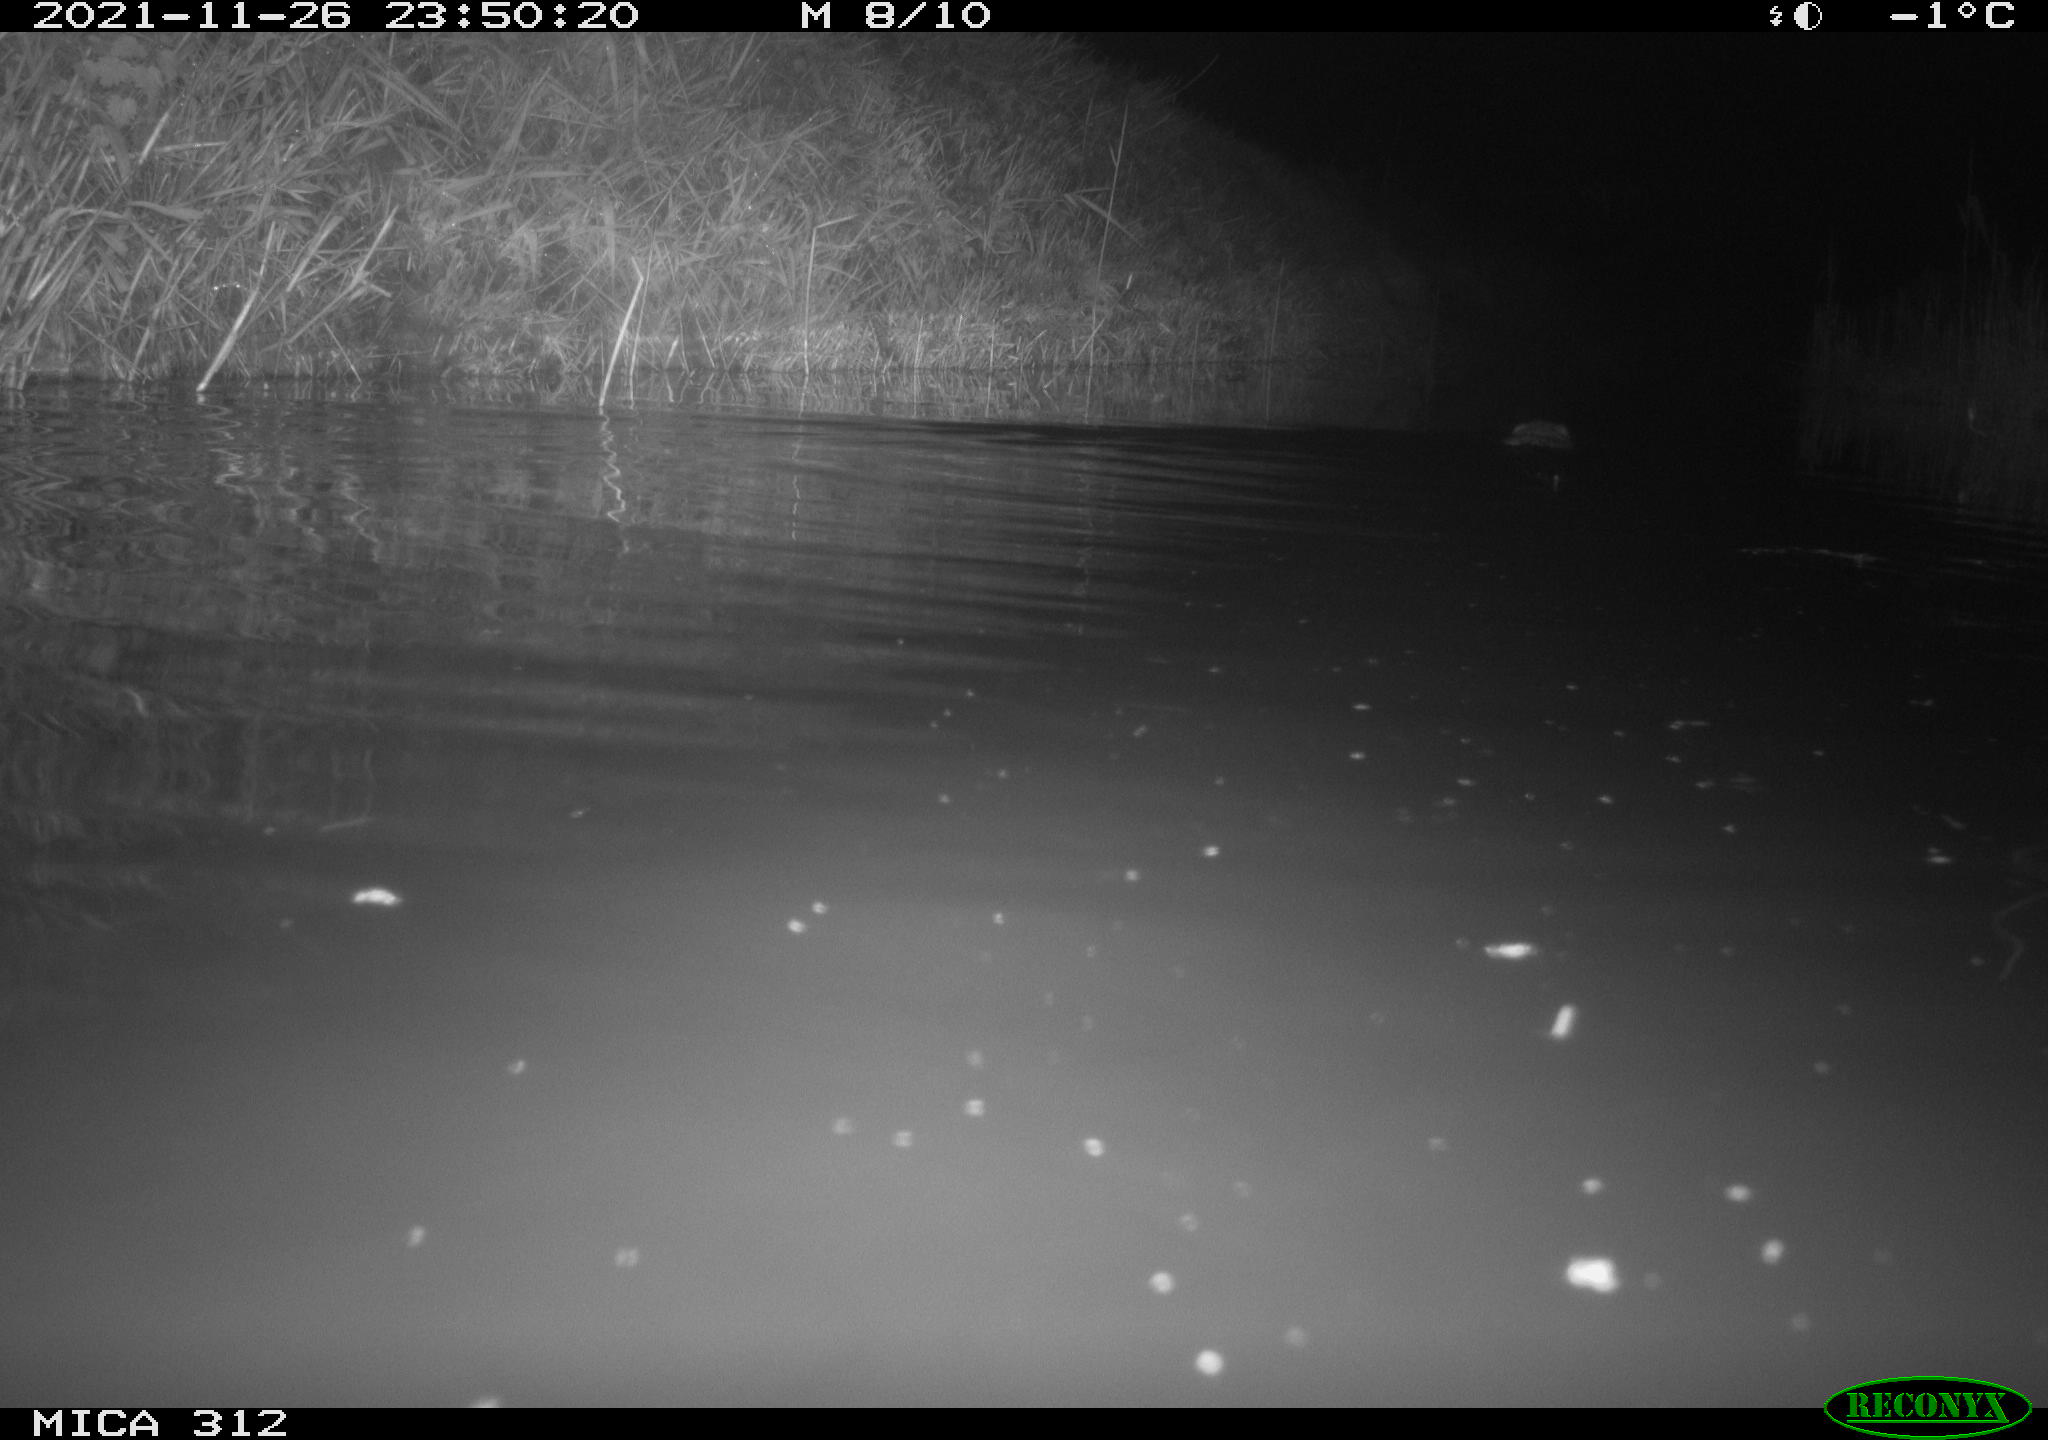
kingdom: Animalia
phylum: Chordata
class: Mammalia
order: Rodentia
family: Cricetidae
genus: Ondatra
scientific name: Ondatra zibethicus
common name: Muskrat
